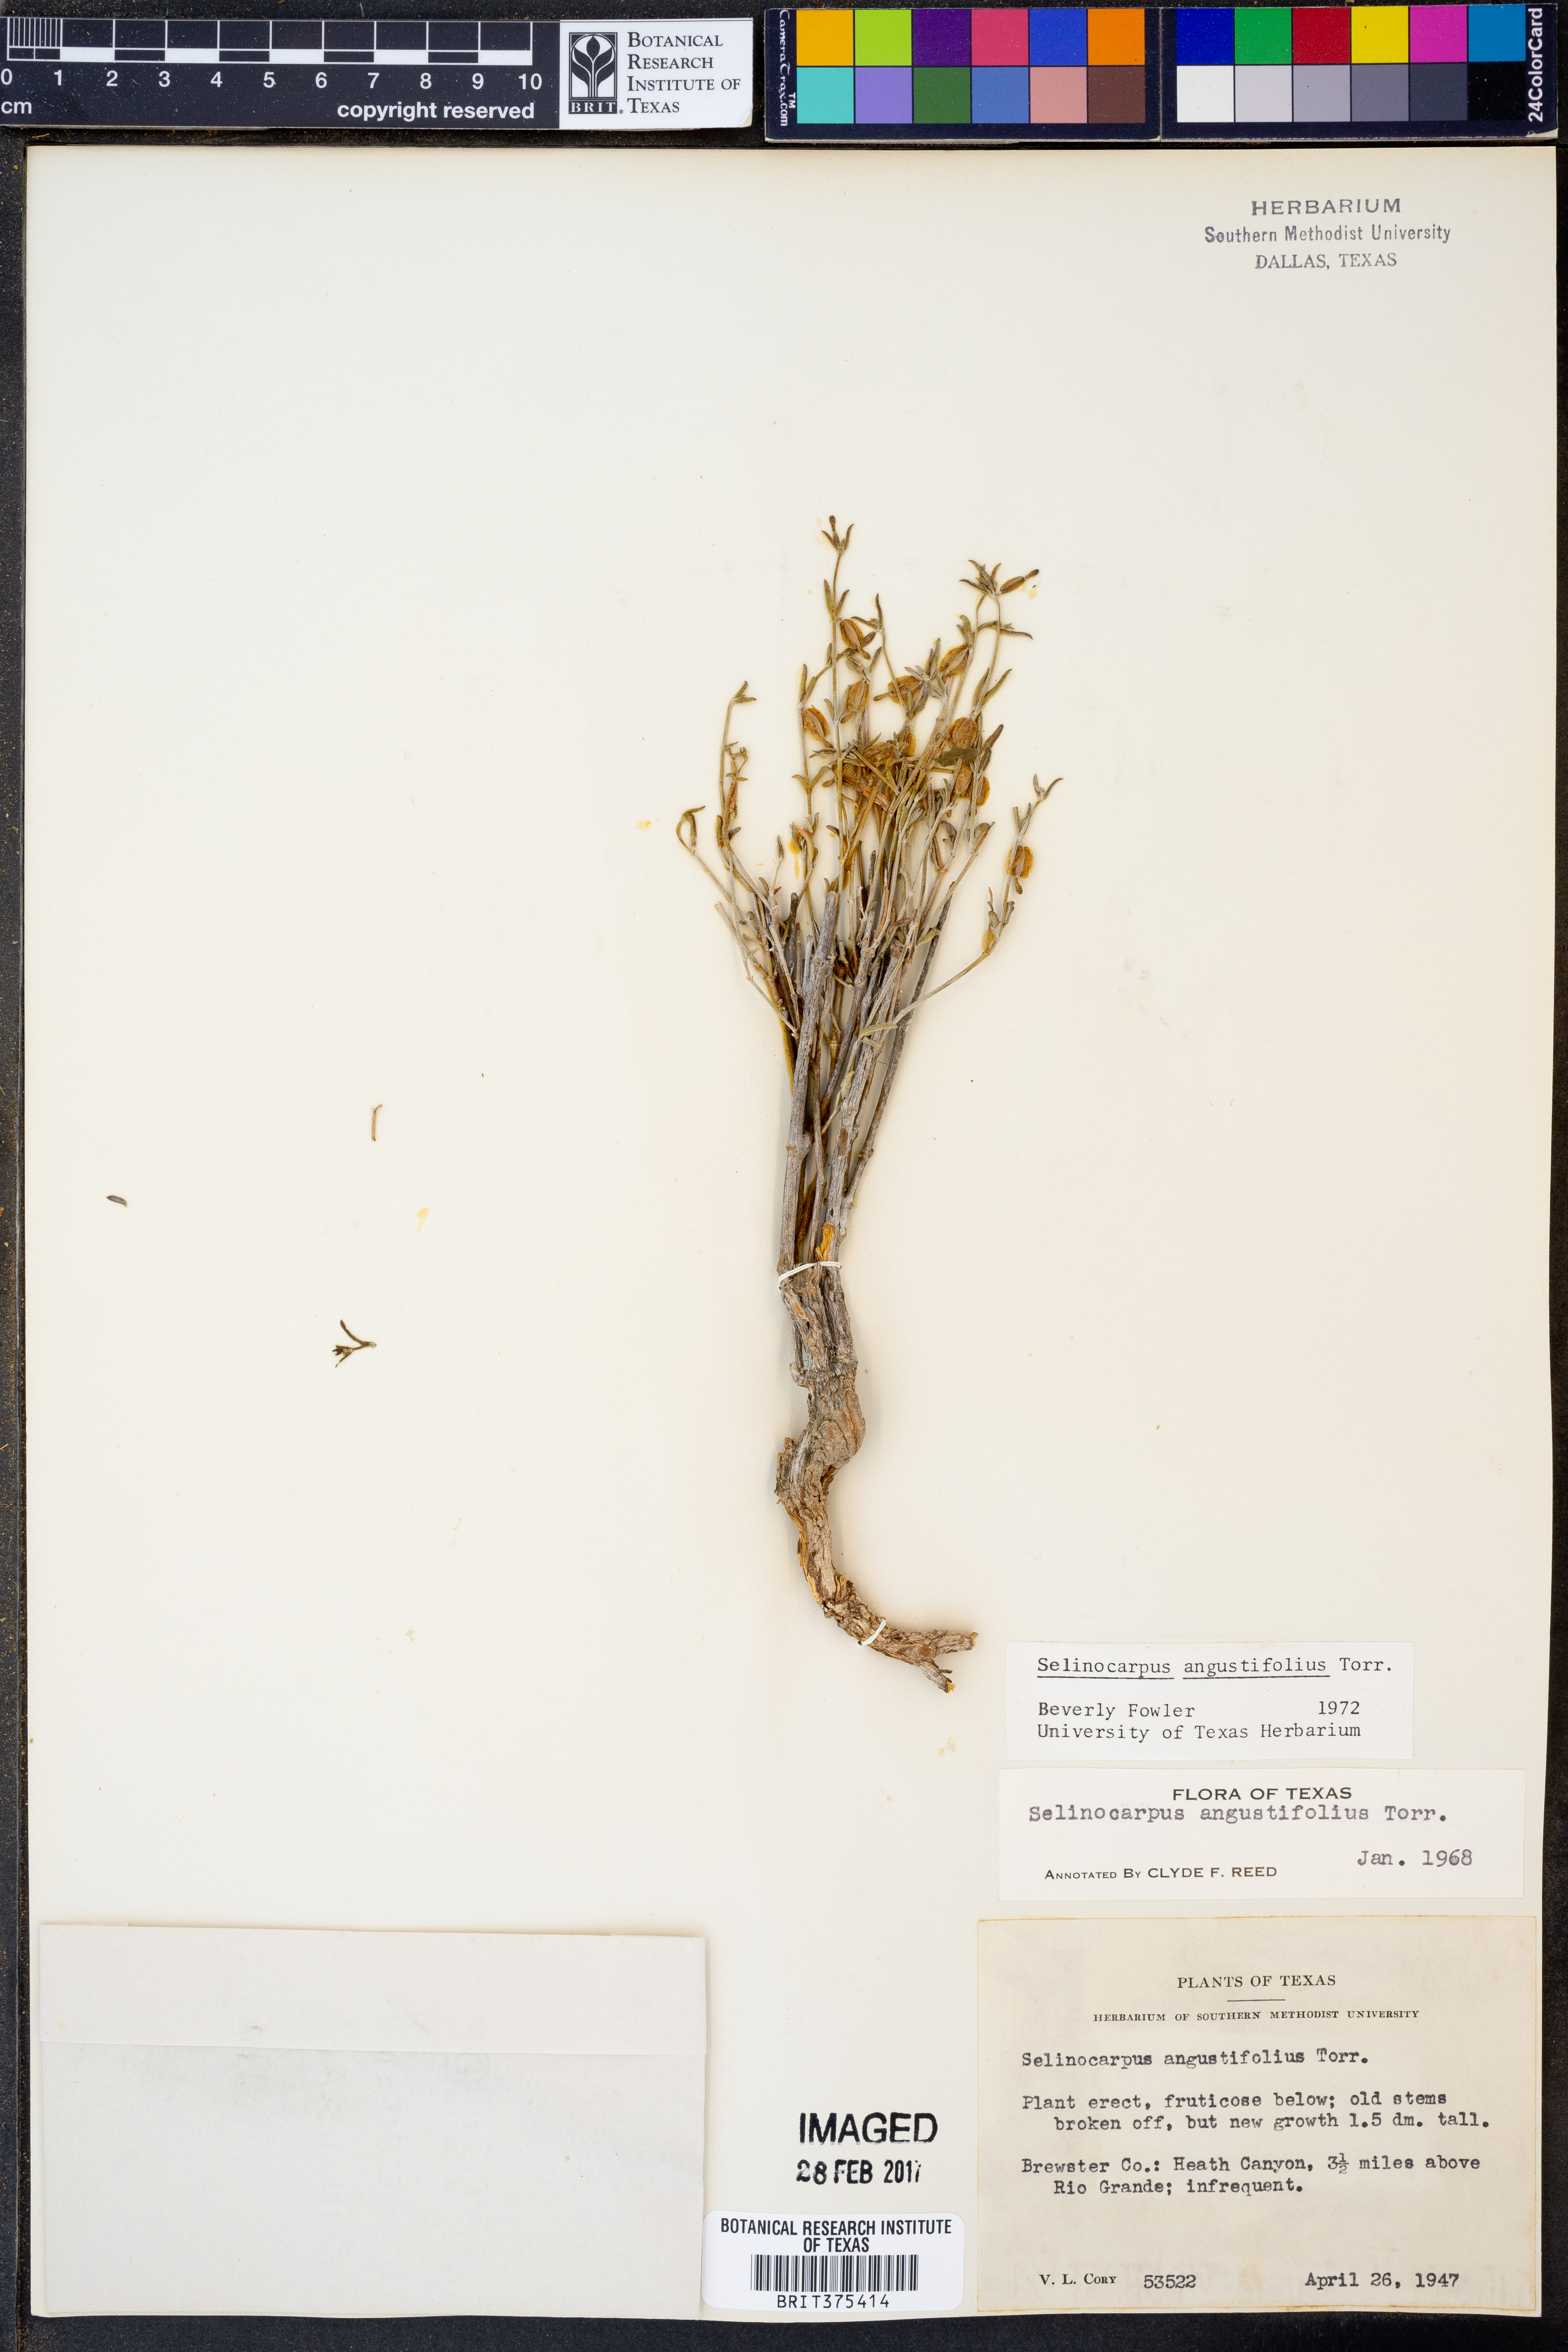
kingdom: Plantae
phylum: Tracheophyta
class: Magnoliopsida
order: Caryophyllales
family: Nyctaginaceae
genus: Acleisanthes
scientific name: Acleisanthes angustifolia
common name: Narrowleaf moonpod
